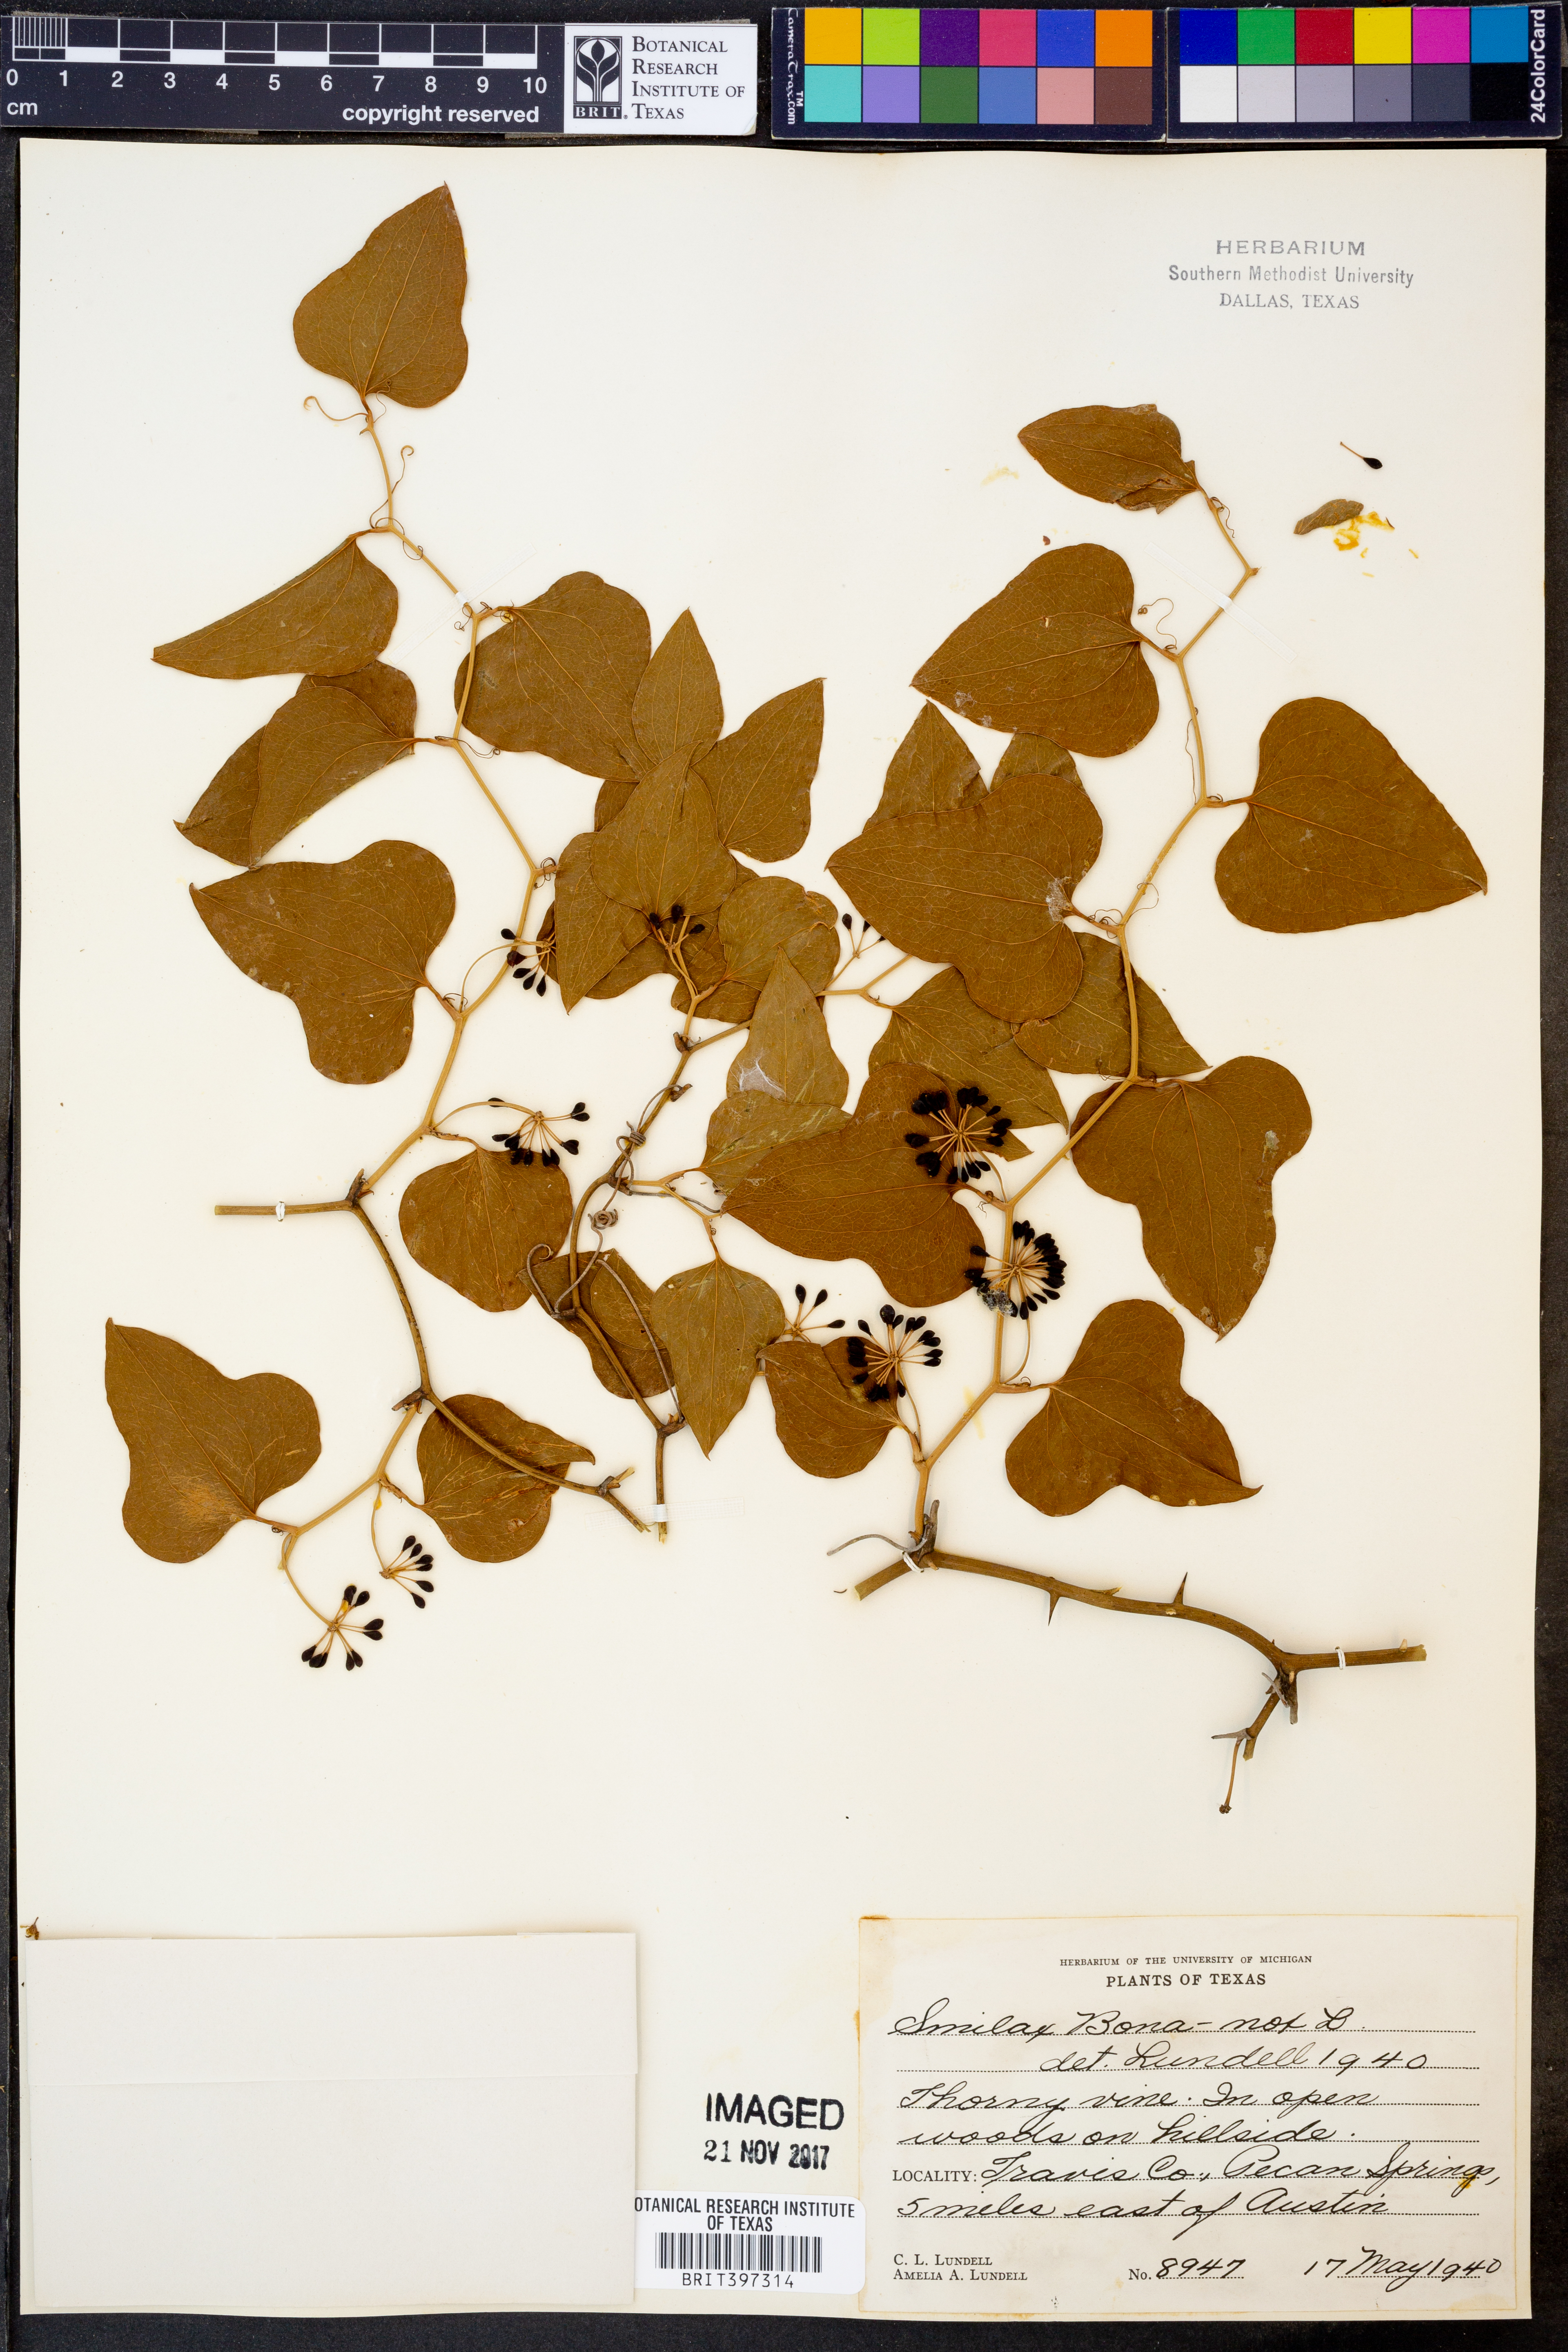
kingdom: Plantae
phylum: Tracheophyta
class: Liliopsida
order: Liliales
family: Smilacaceae
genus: Smilax
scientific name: Smilax bona-nox
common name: Catbrier
